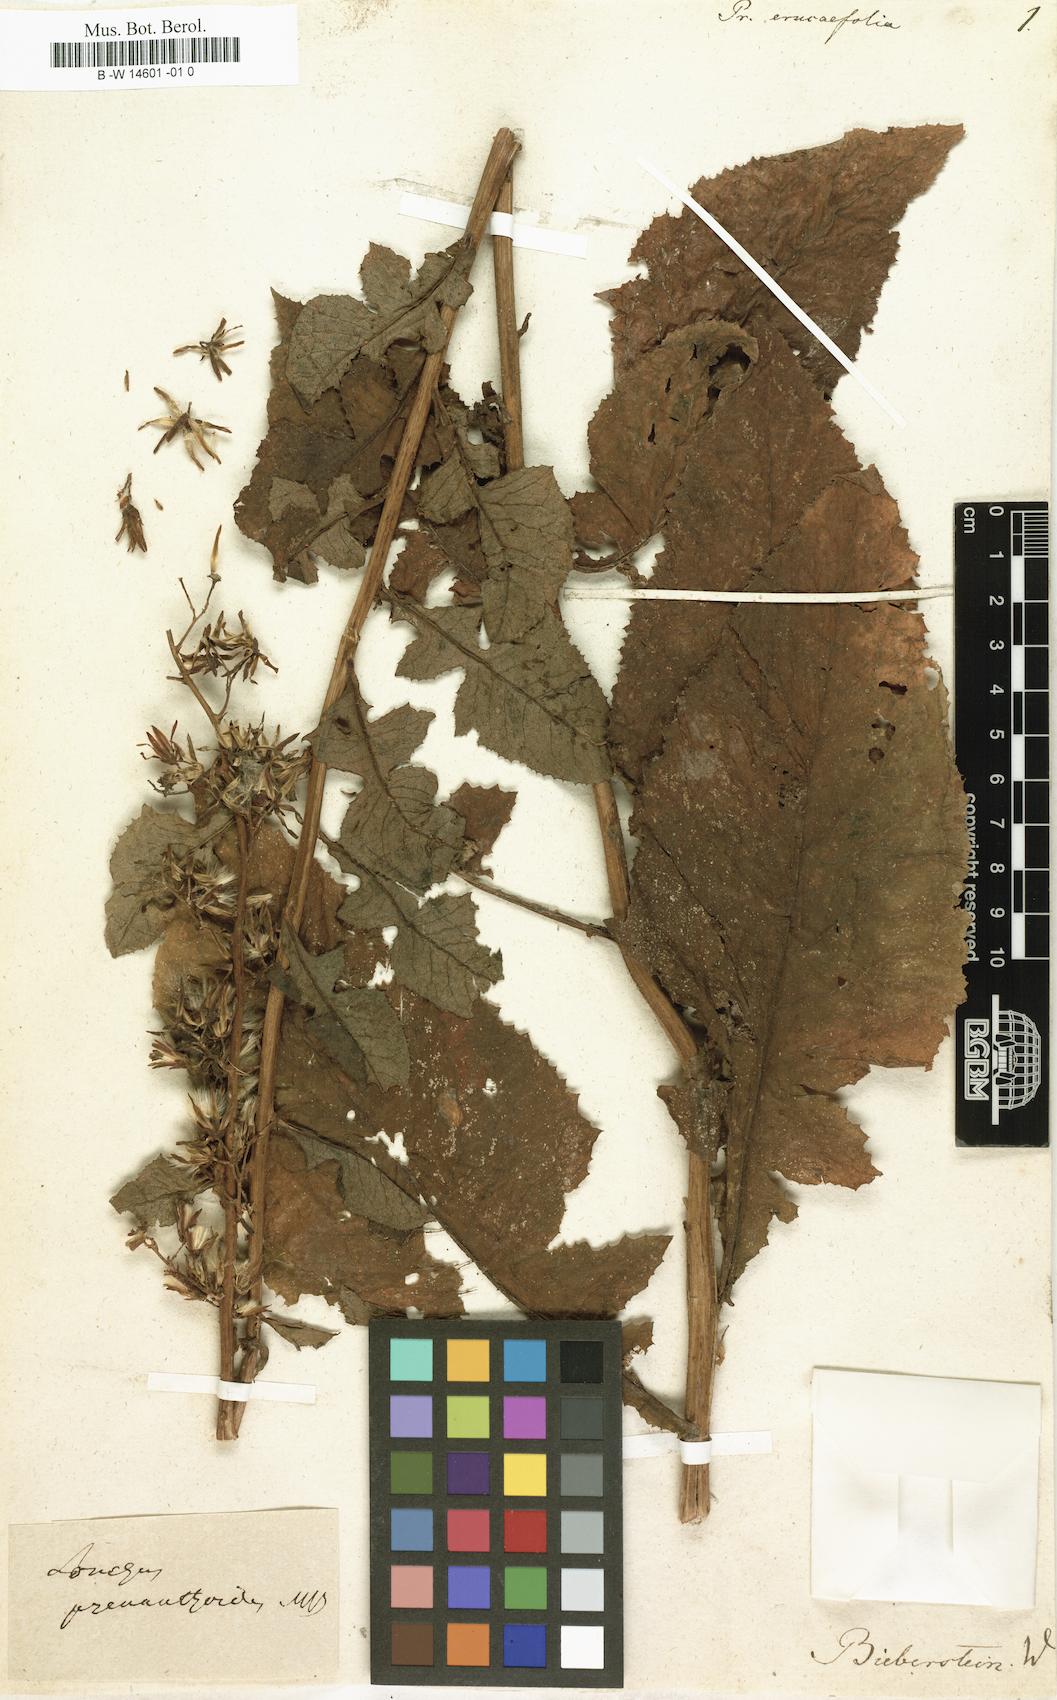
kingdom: Plantae
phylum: Tracheophyta
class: Magnoliopsida
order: Asterales
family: Asteraceae
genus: Cicerbita
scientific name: Cicerbita prenanthoides
